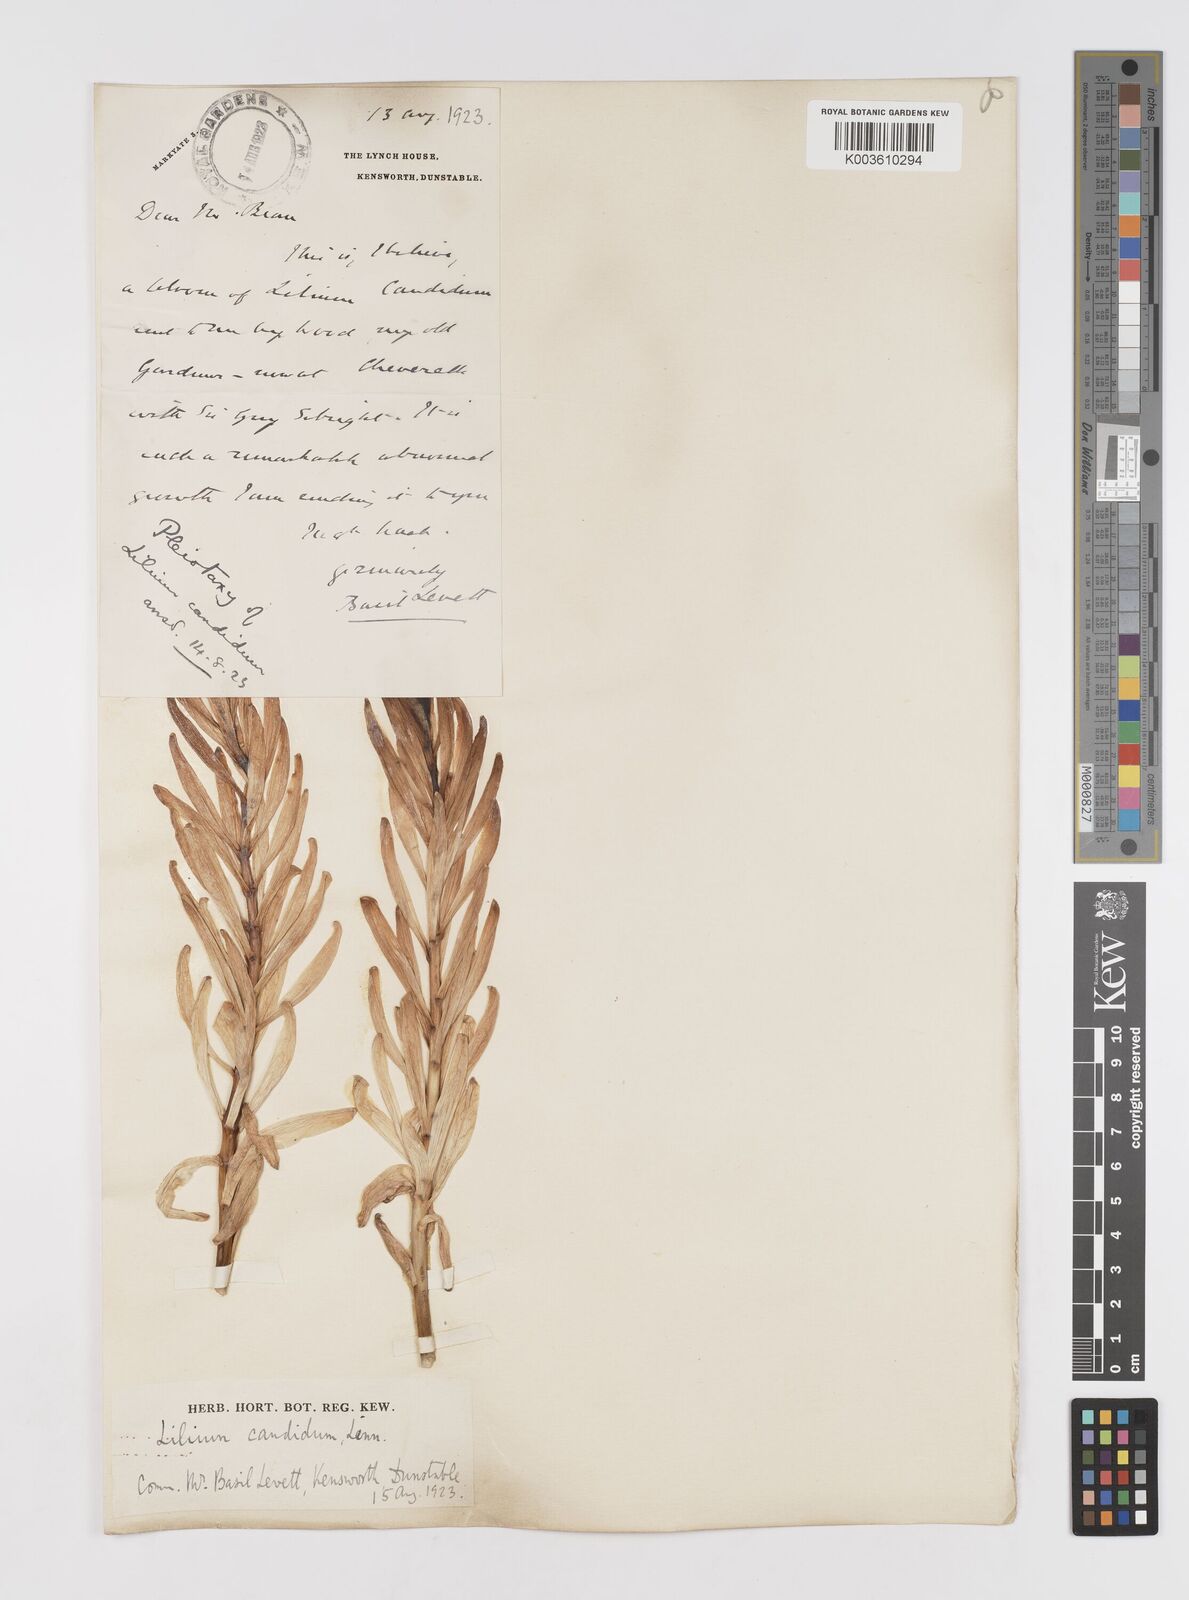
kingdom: Plantae
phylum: Tracheophyta
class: Liliopsida
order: Liliales
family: Liliaceae
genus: Lilium
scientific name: Lilium
